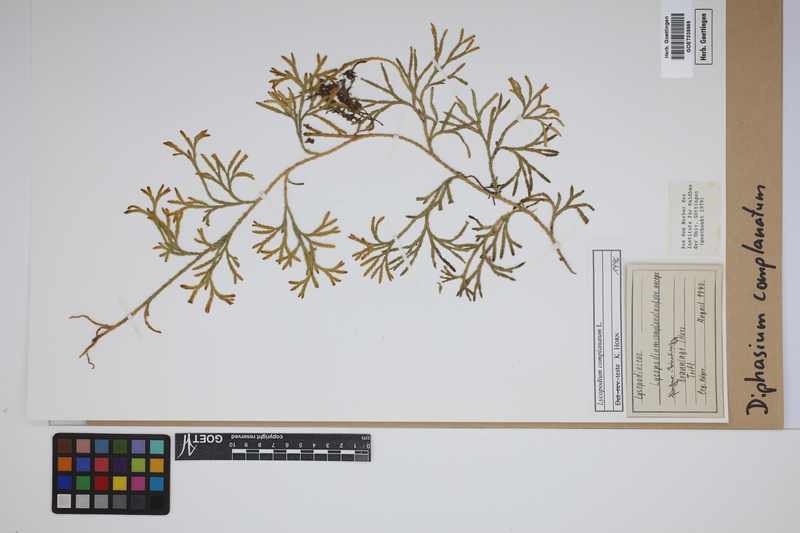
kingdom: Plantae
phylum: Tracheophyta
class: Lycopodiopsida
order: Lycopodiales
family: Lycopodiaceae
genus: Diphasiastrum
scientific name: Diphasiastrum complanatum
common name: Northern running-pine
